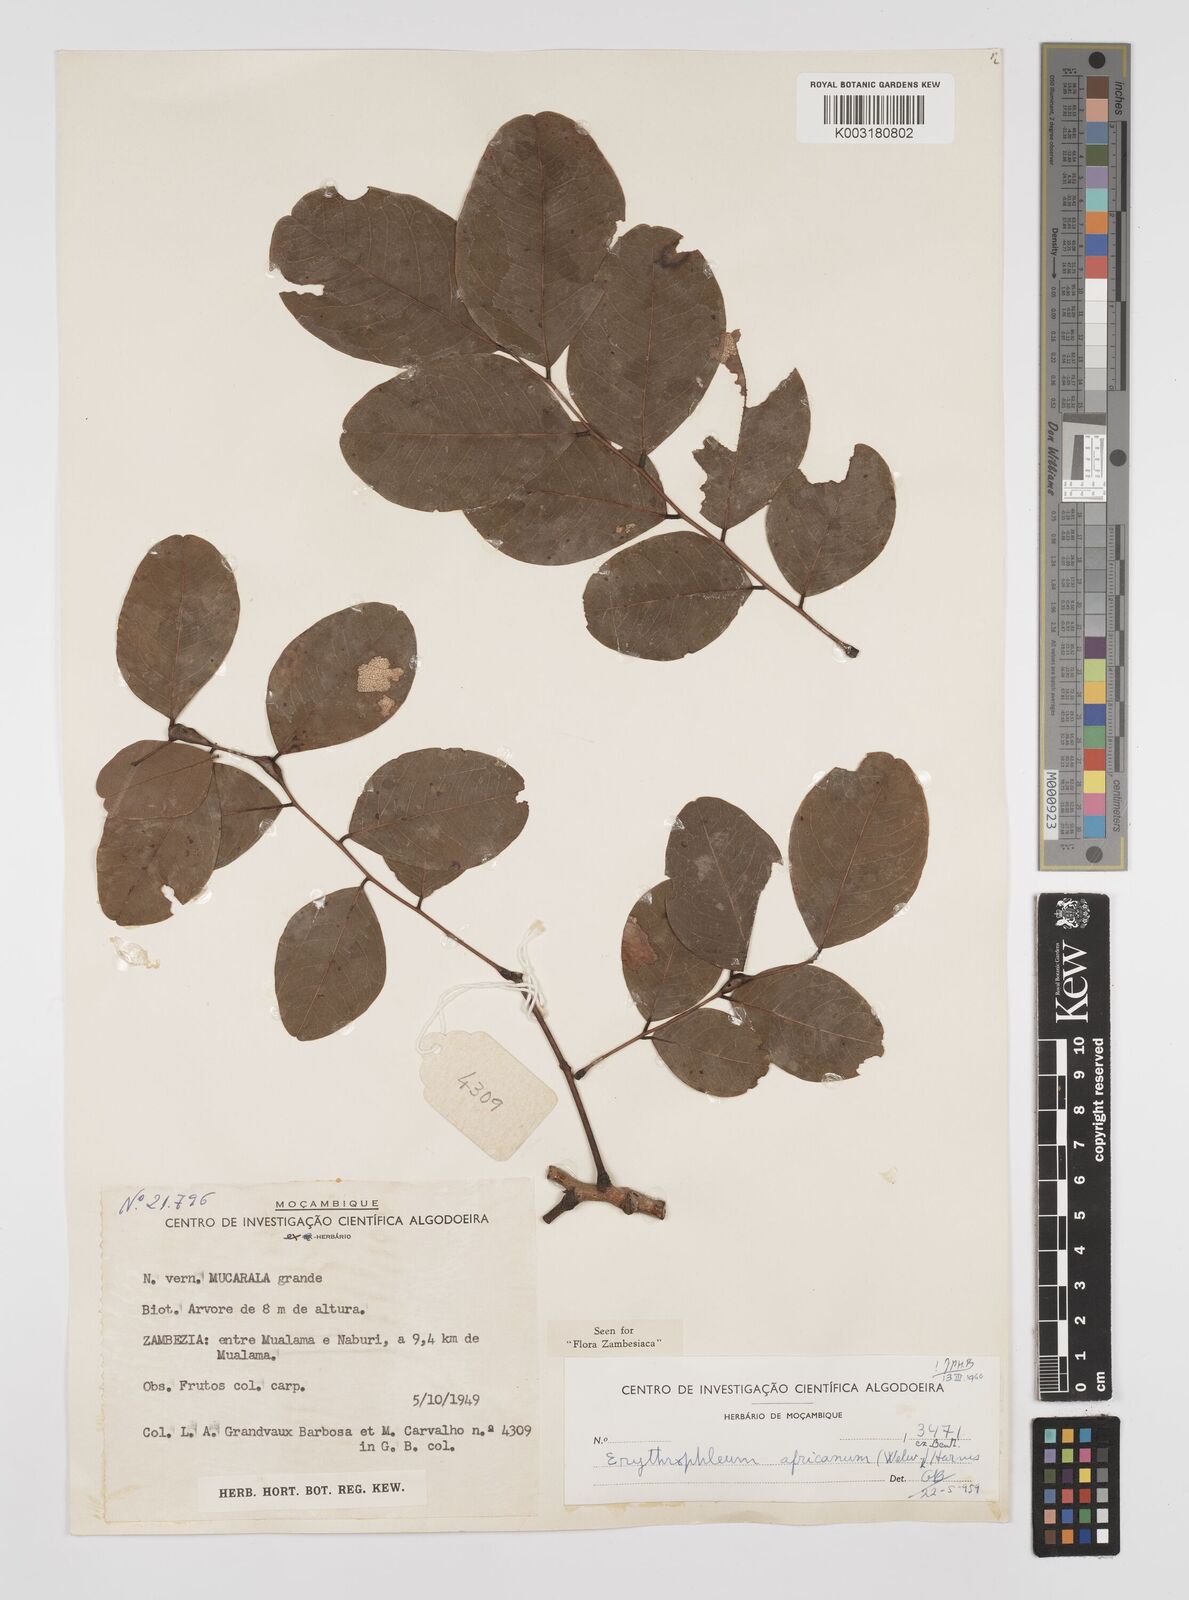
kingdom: Plantae
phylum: Tracheophyta
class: Magnoliopsida
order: Fabales
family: Fabaceae
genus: Peltophorum
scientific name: Peltophorum africanum
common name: African black wattle
